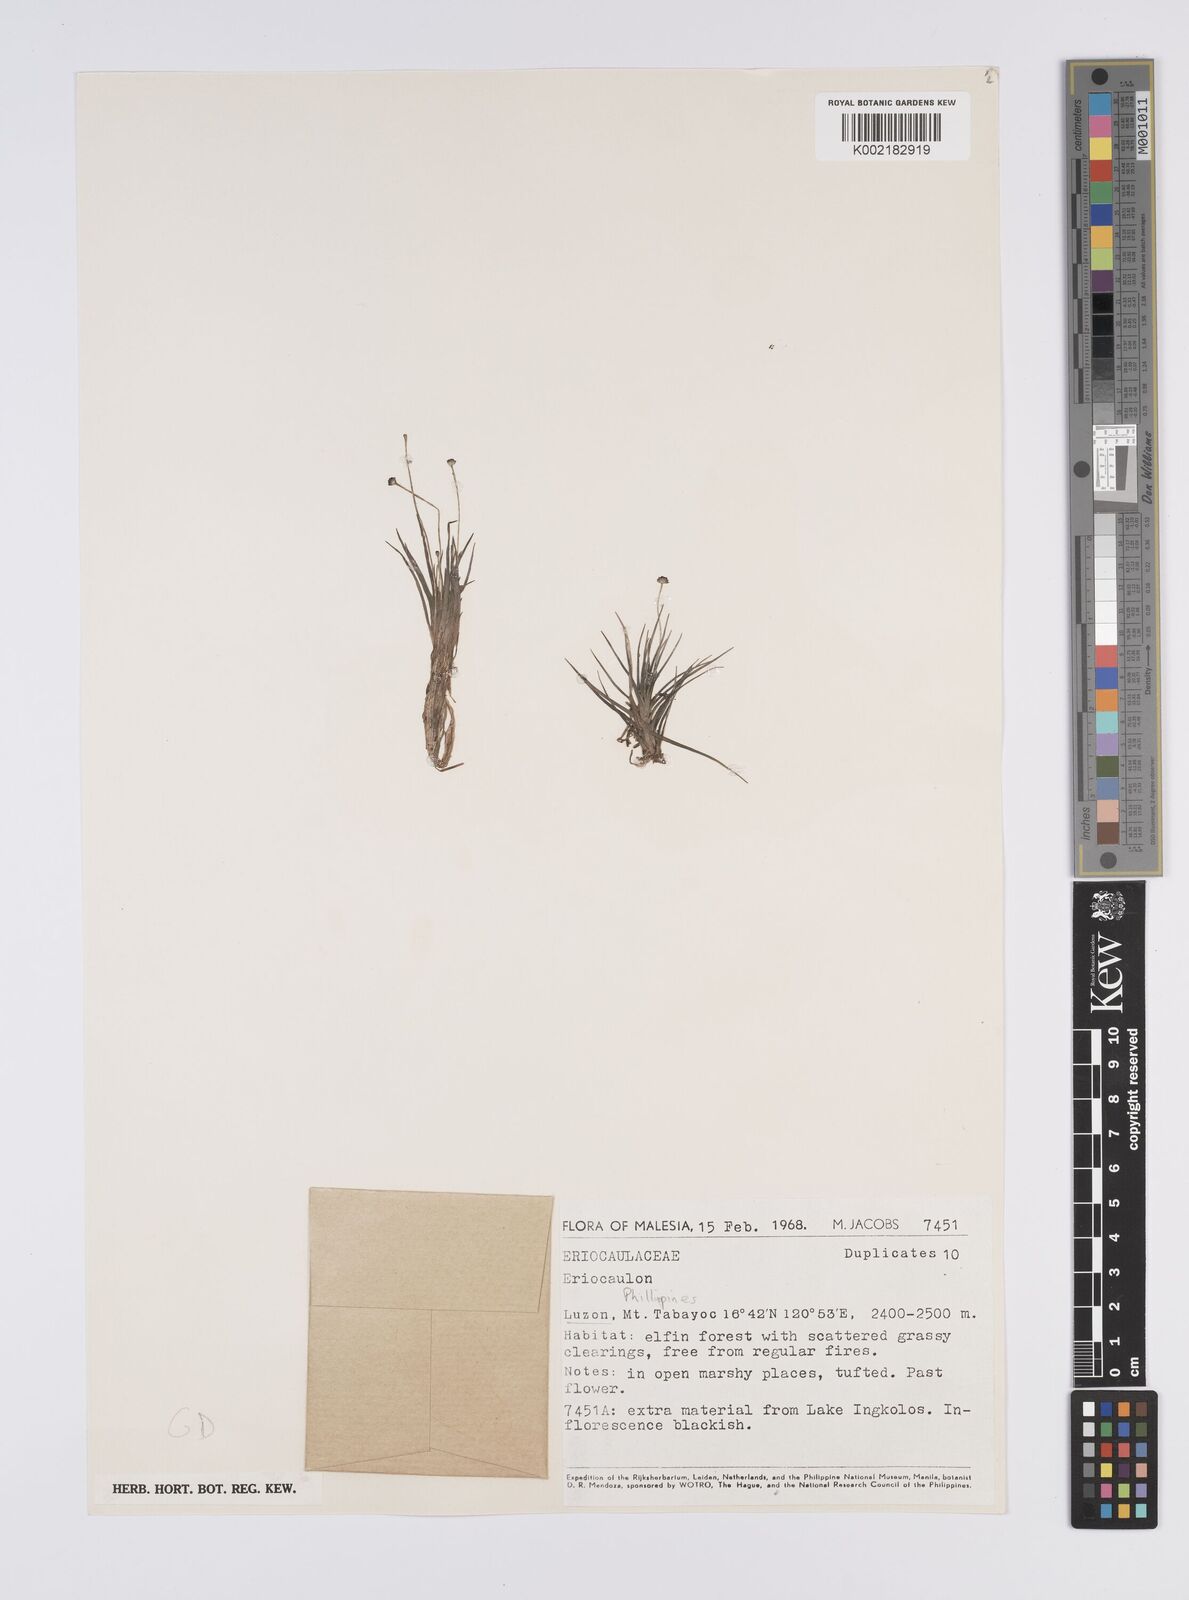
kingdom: Plantae
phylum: Tracheophyta
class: Liliopsida
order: Poales
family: Eriocaulaceae
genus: Eriocaulon
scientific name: Eriocaulon depauperatum
